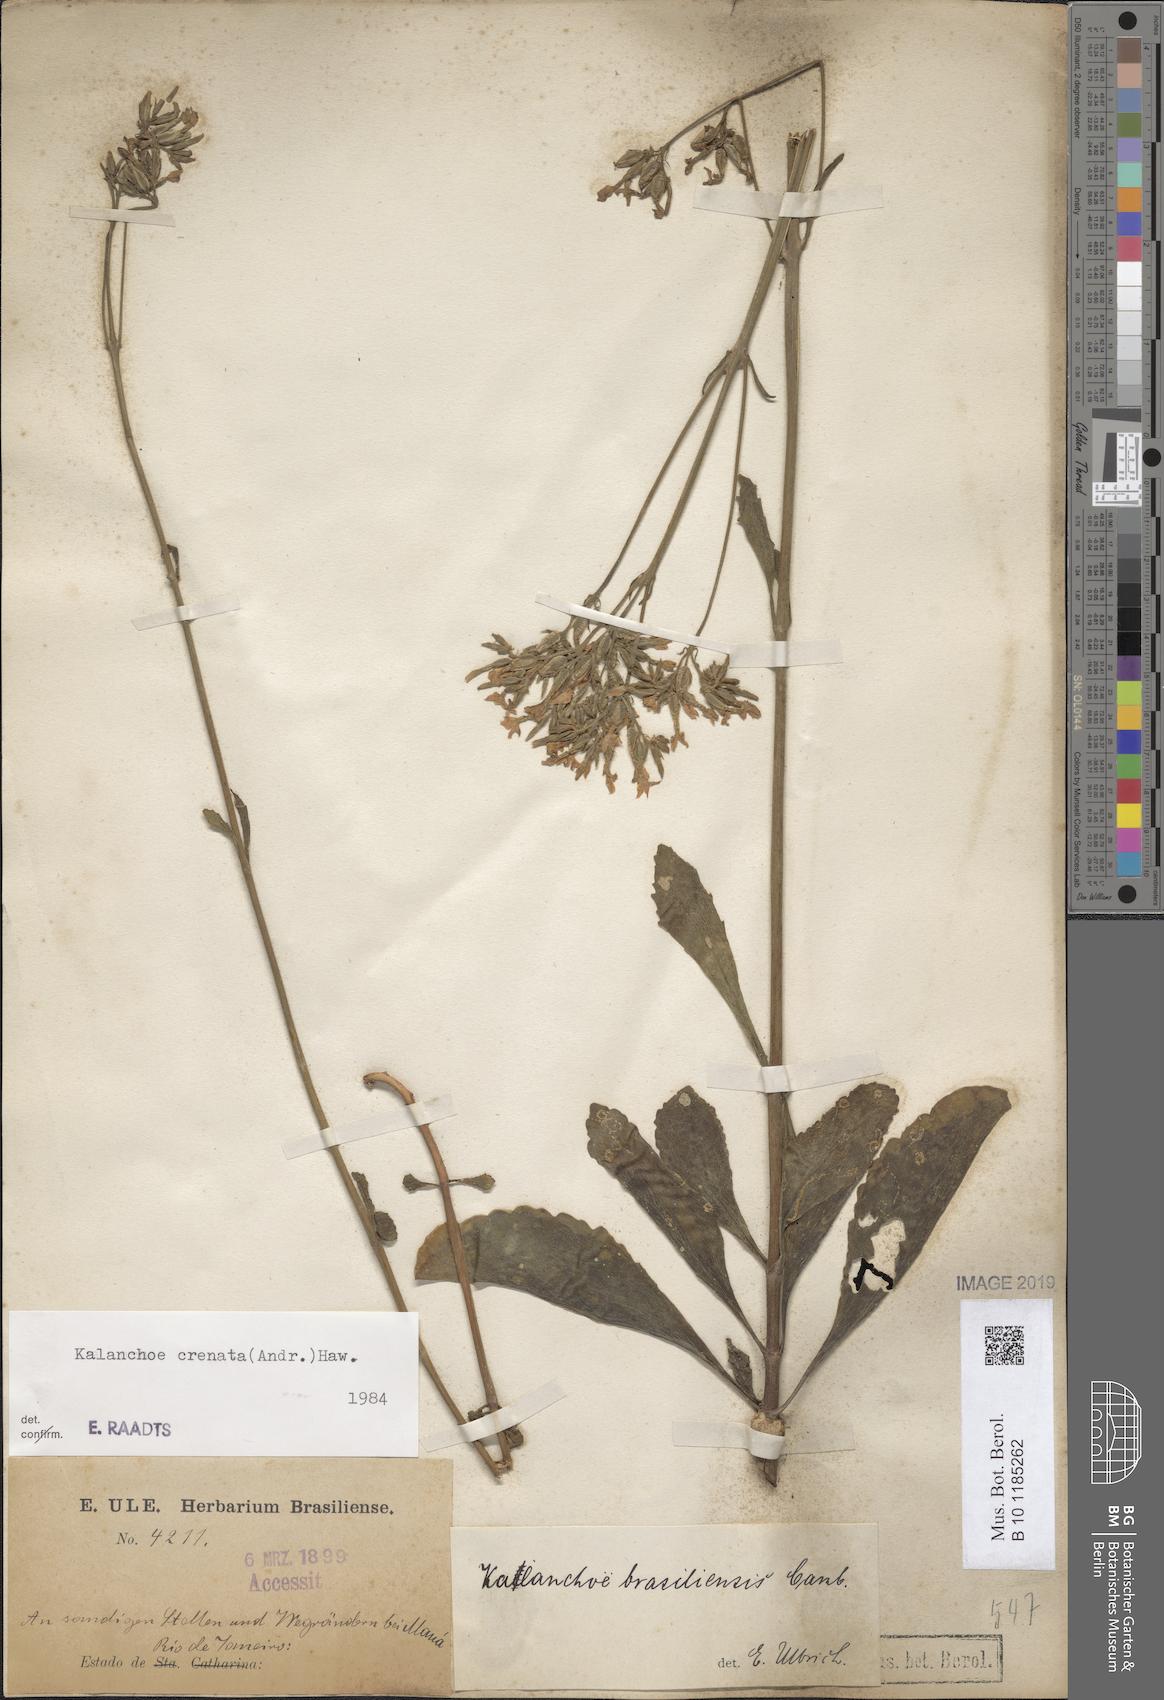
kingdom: Plantae
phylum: Tracheophyta
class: Magnoliopsida
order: Saxifragales
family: Crassulaceae
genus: Kalanchoe
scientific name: Kalanchoe crenata
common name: Neverdie
